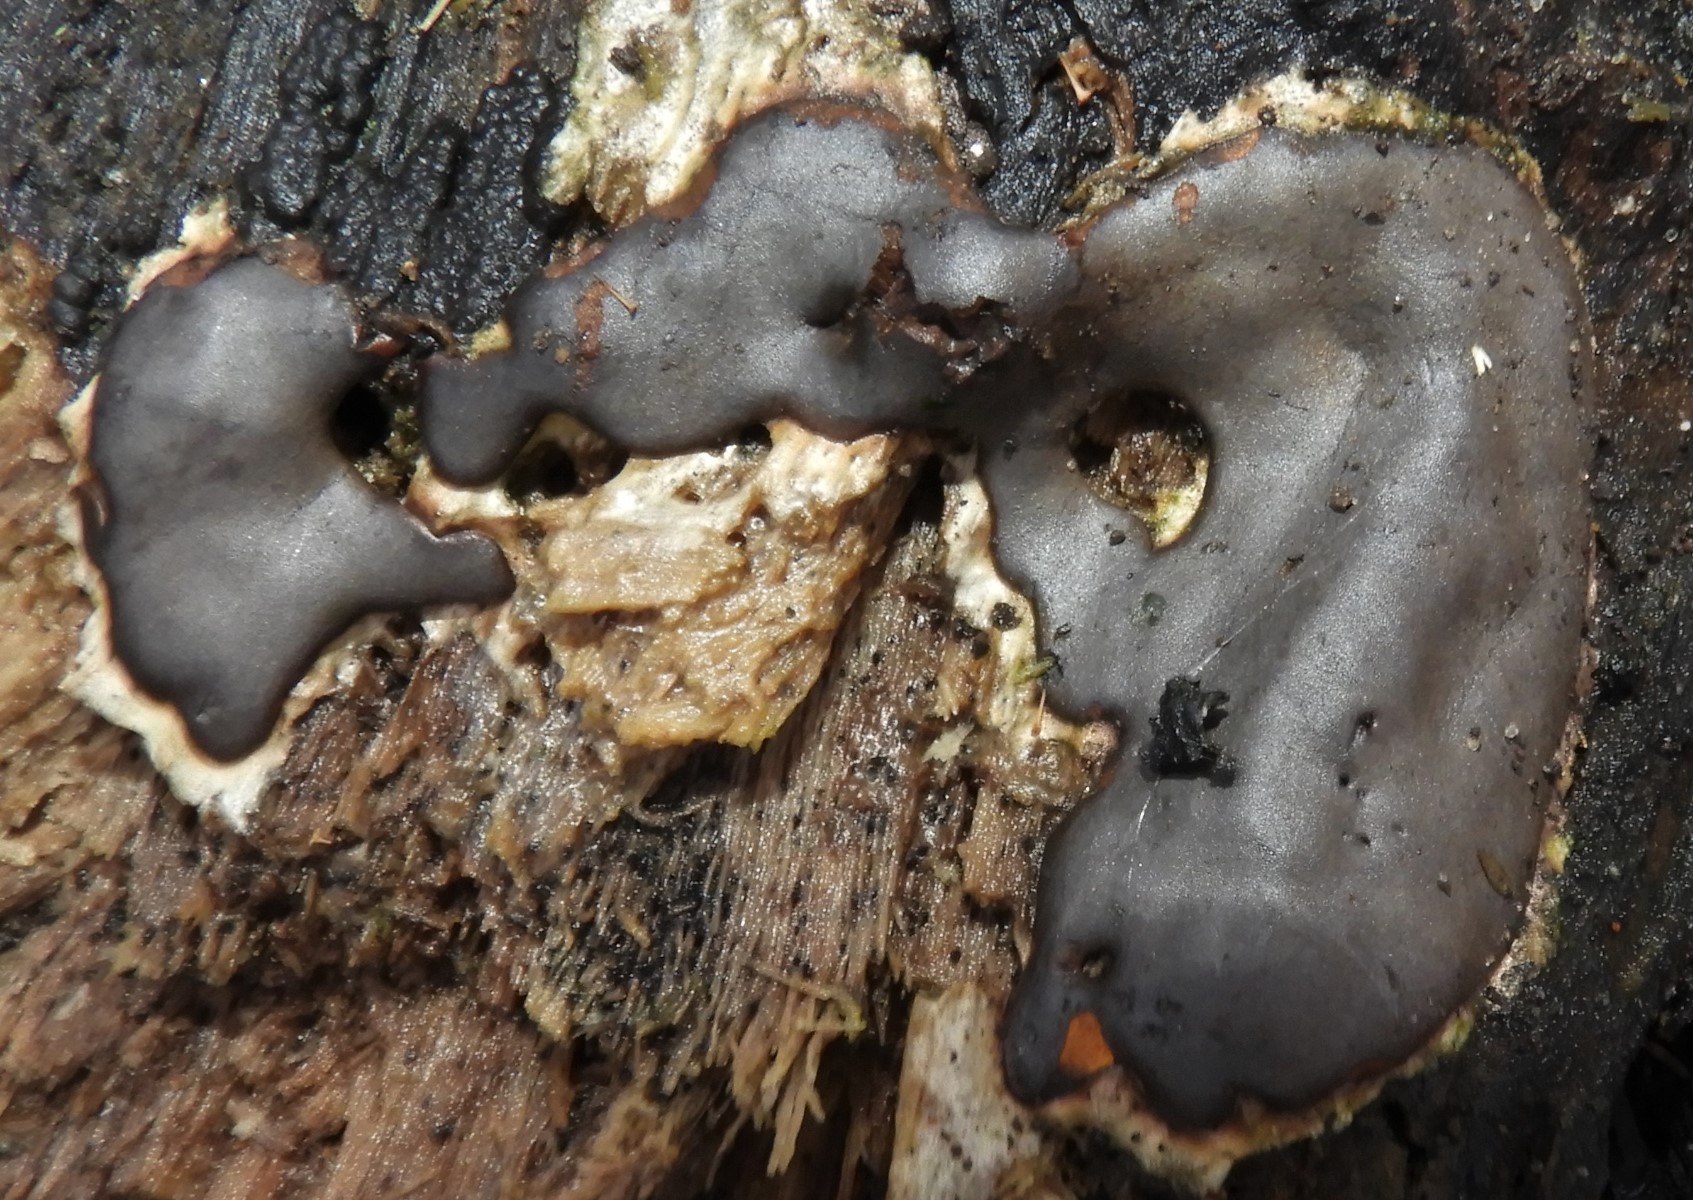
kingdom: Protozoa
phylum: Mycetozoa
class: Myxomycetes
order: Trichiales
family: Dictydiaethaliaceae
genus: Dictydiaethalium
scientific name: Dictydiaethalium plumbeum
